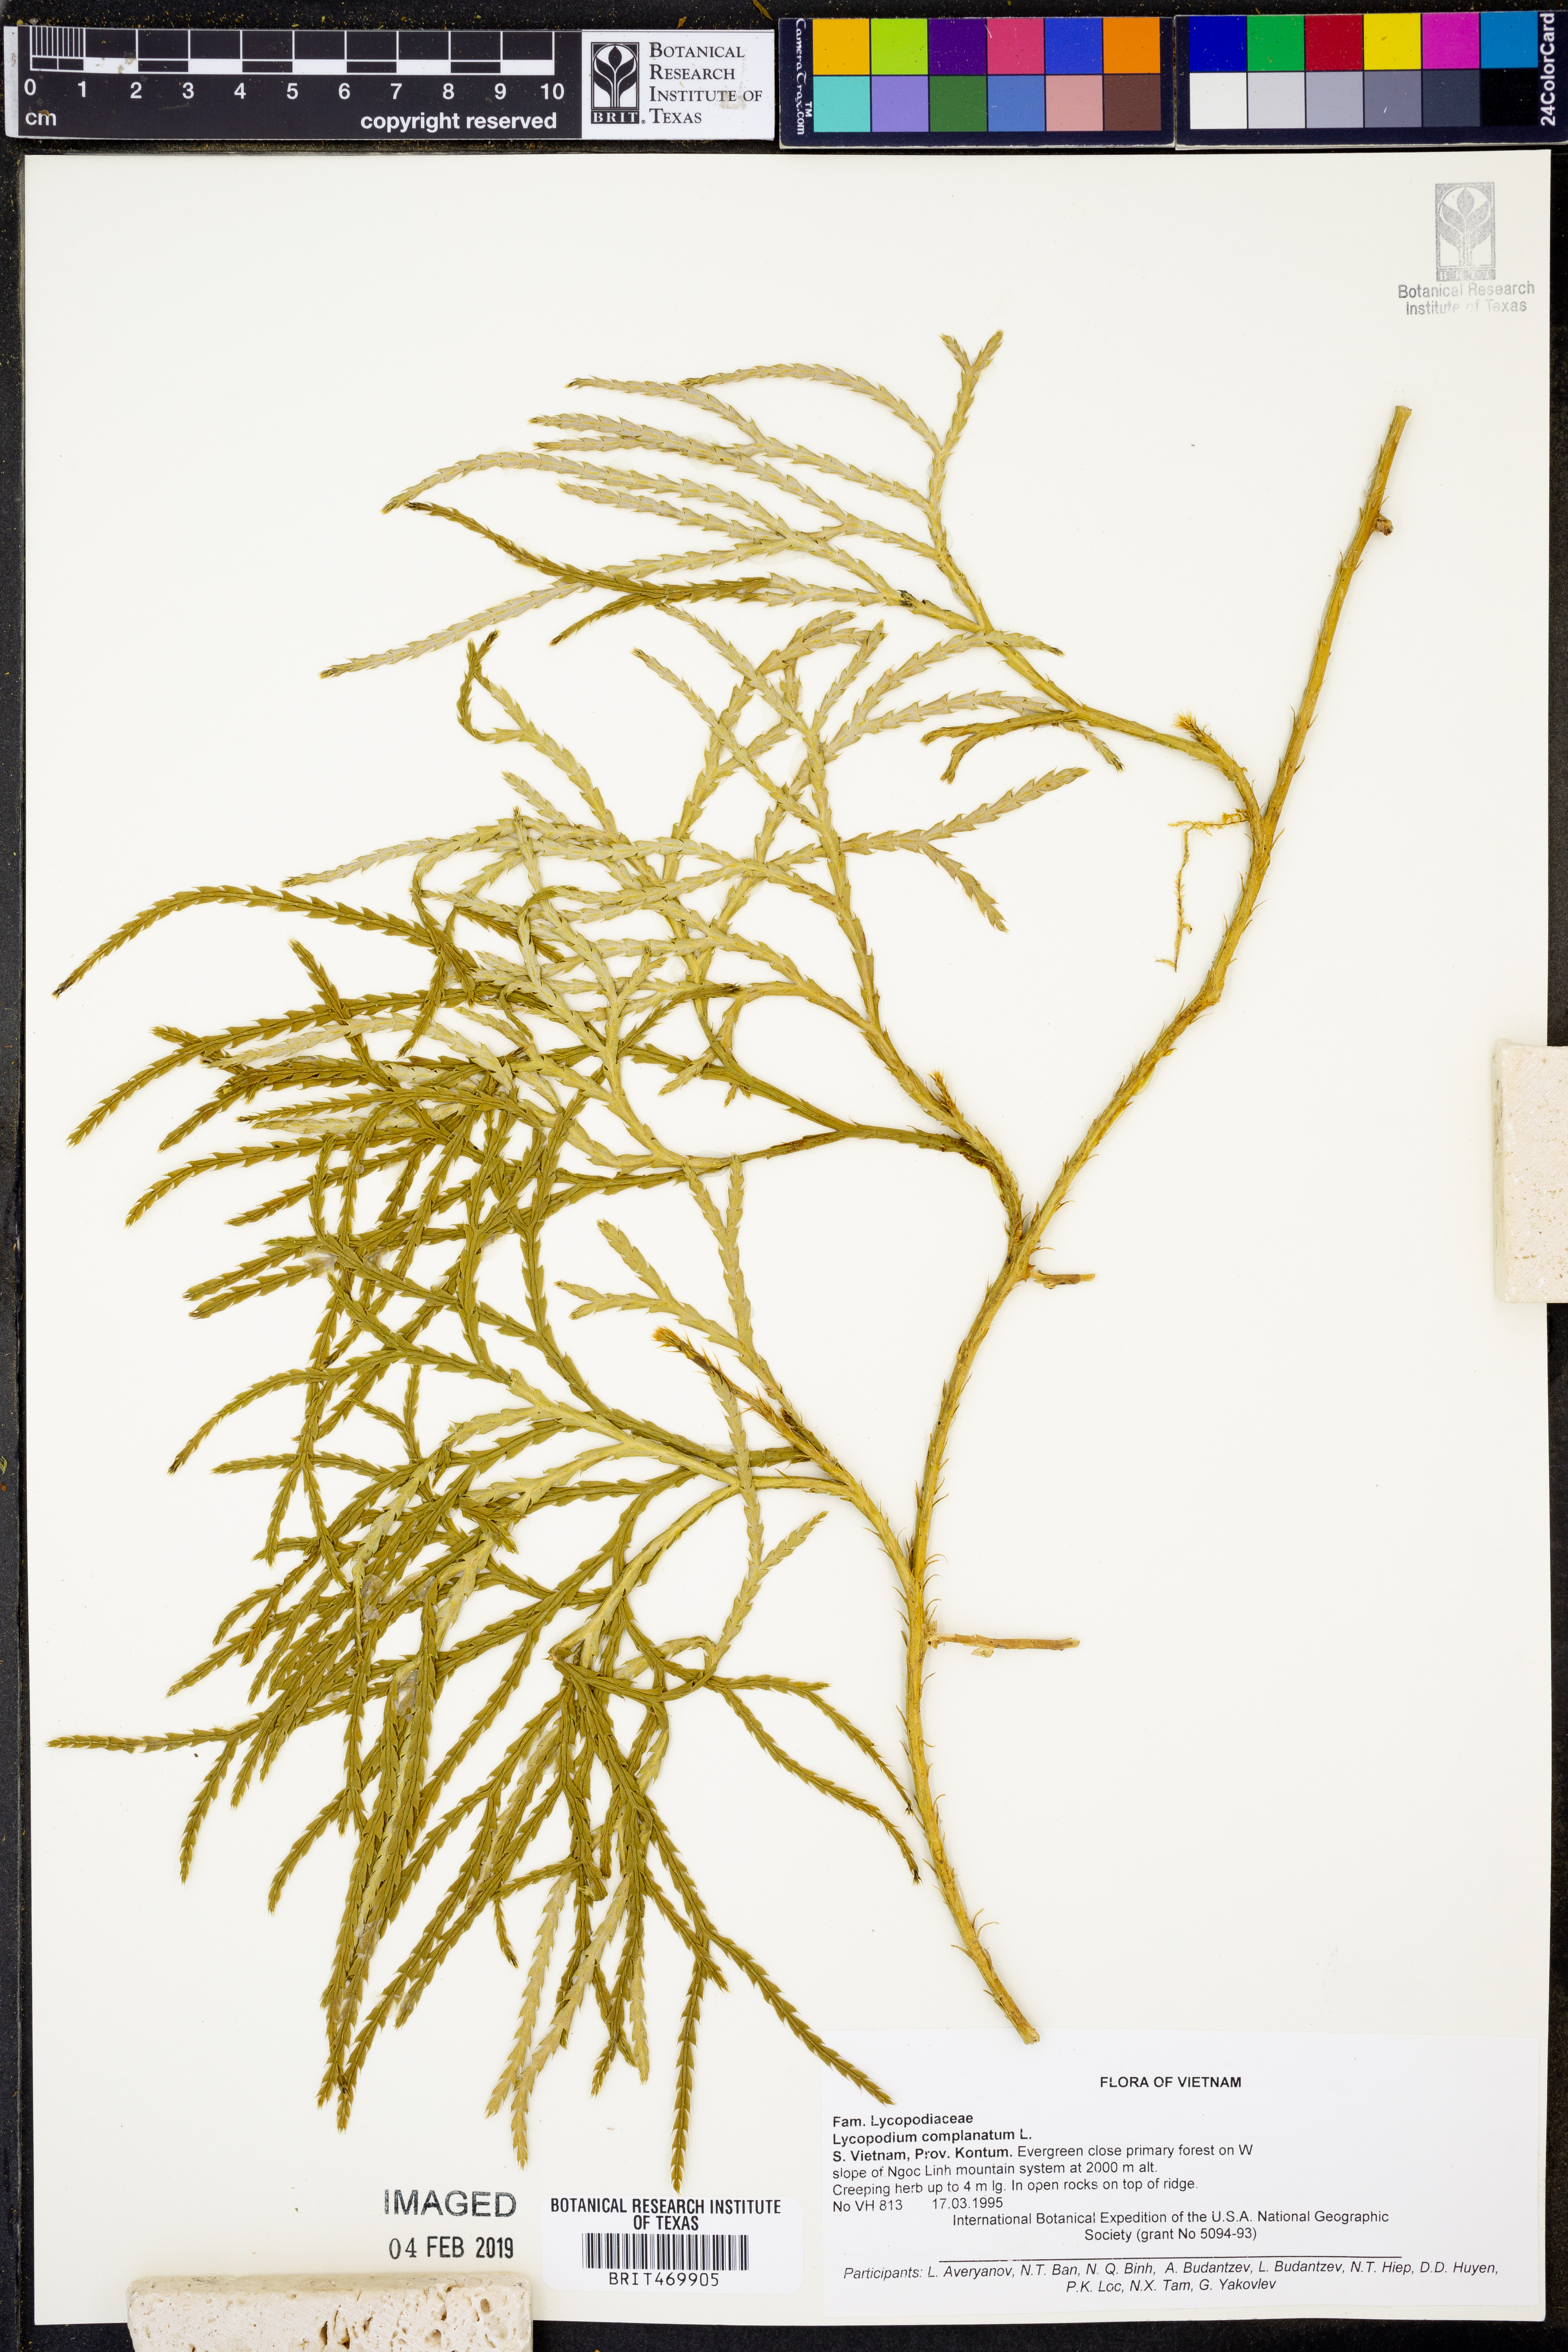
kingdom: Plantae
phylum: Tracheophyta
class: Lycopodiopsida
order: Lycopodiales
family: Lycopodiaceae
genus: Diphasiastrum
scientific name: Diphasiastrum complanatum
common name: Northern running-pine
